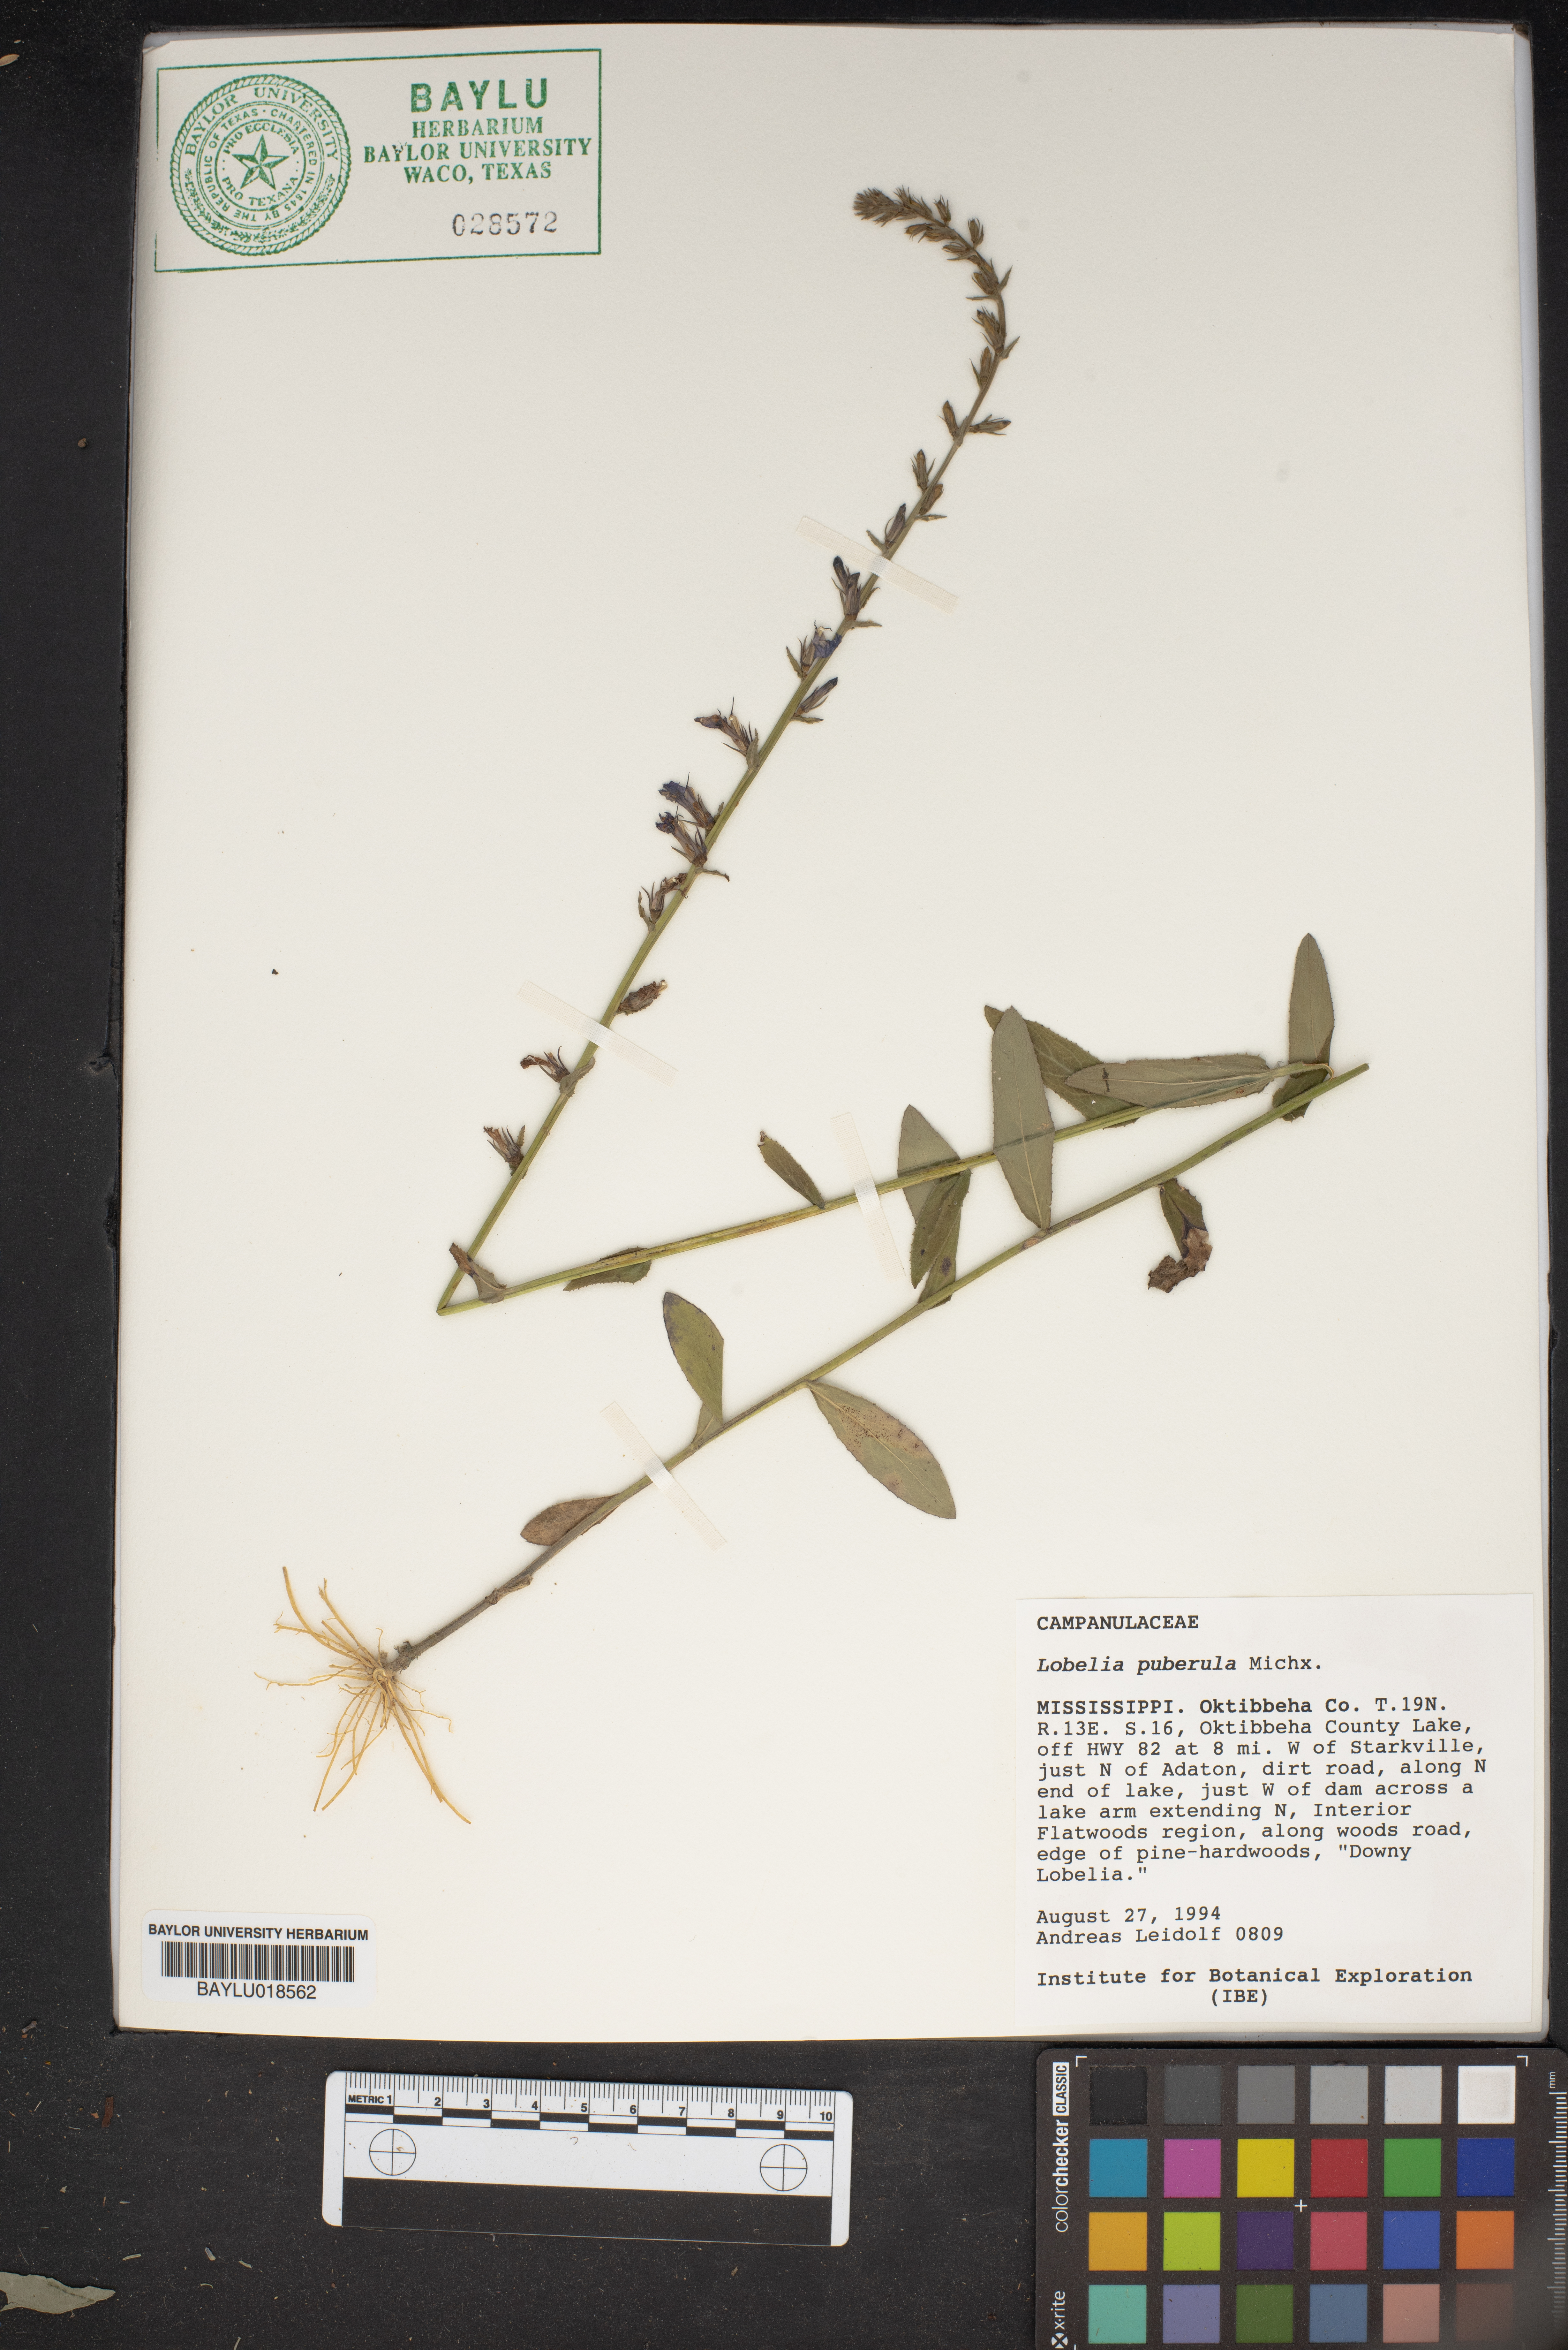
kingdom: Plantae
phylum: Tracheophyta
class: Magnoliopsida
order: Asterales
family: Campanulaceae
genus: Lobelia
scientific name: Lobelia puberula
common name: Purple dewdrop
